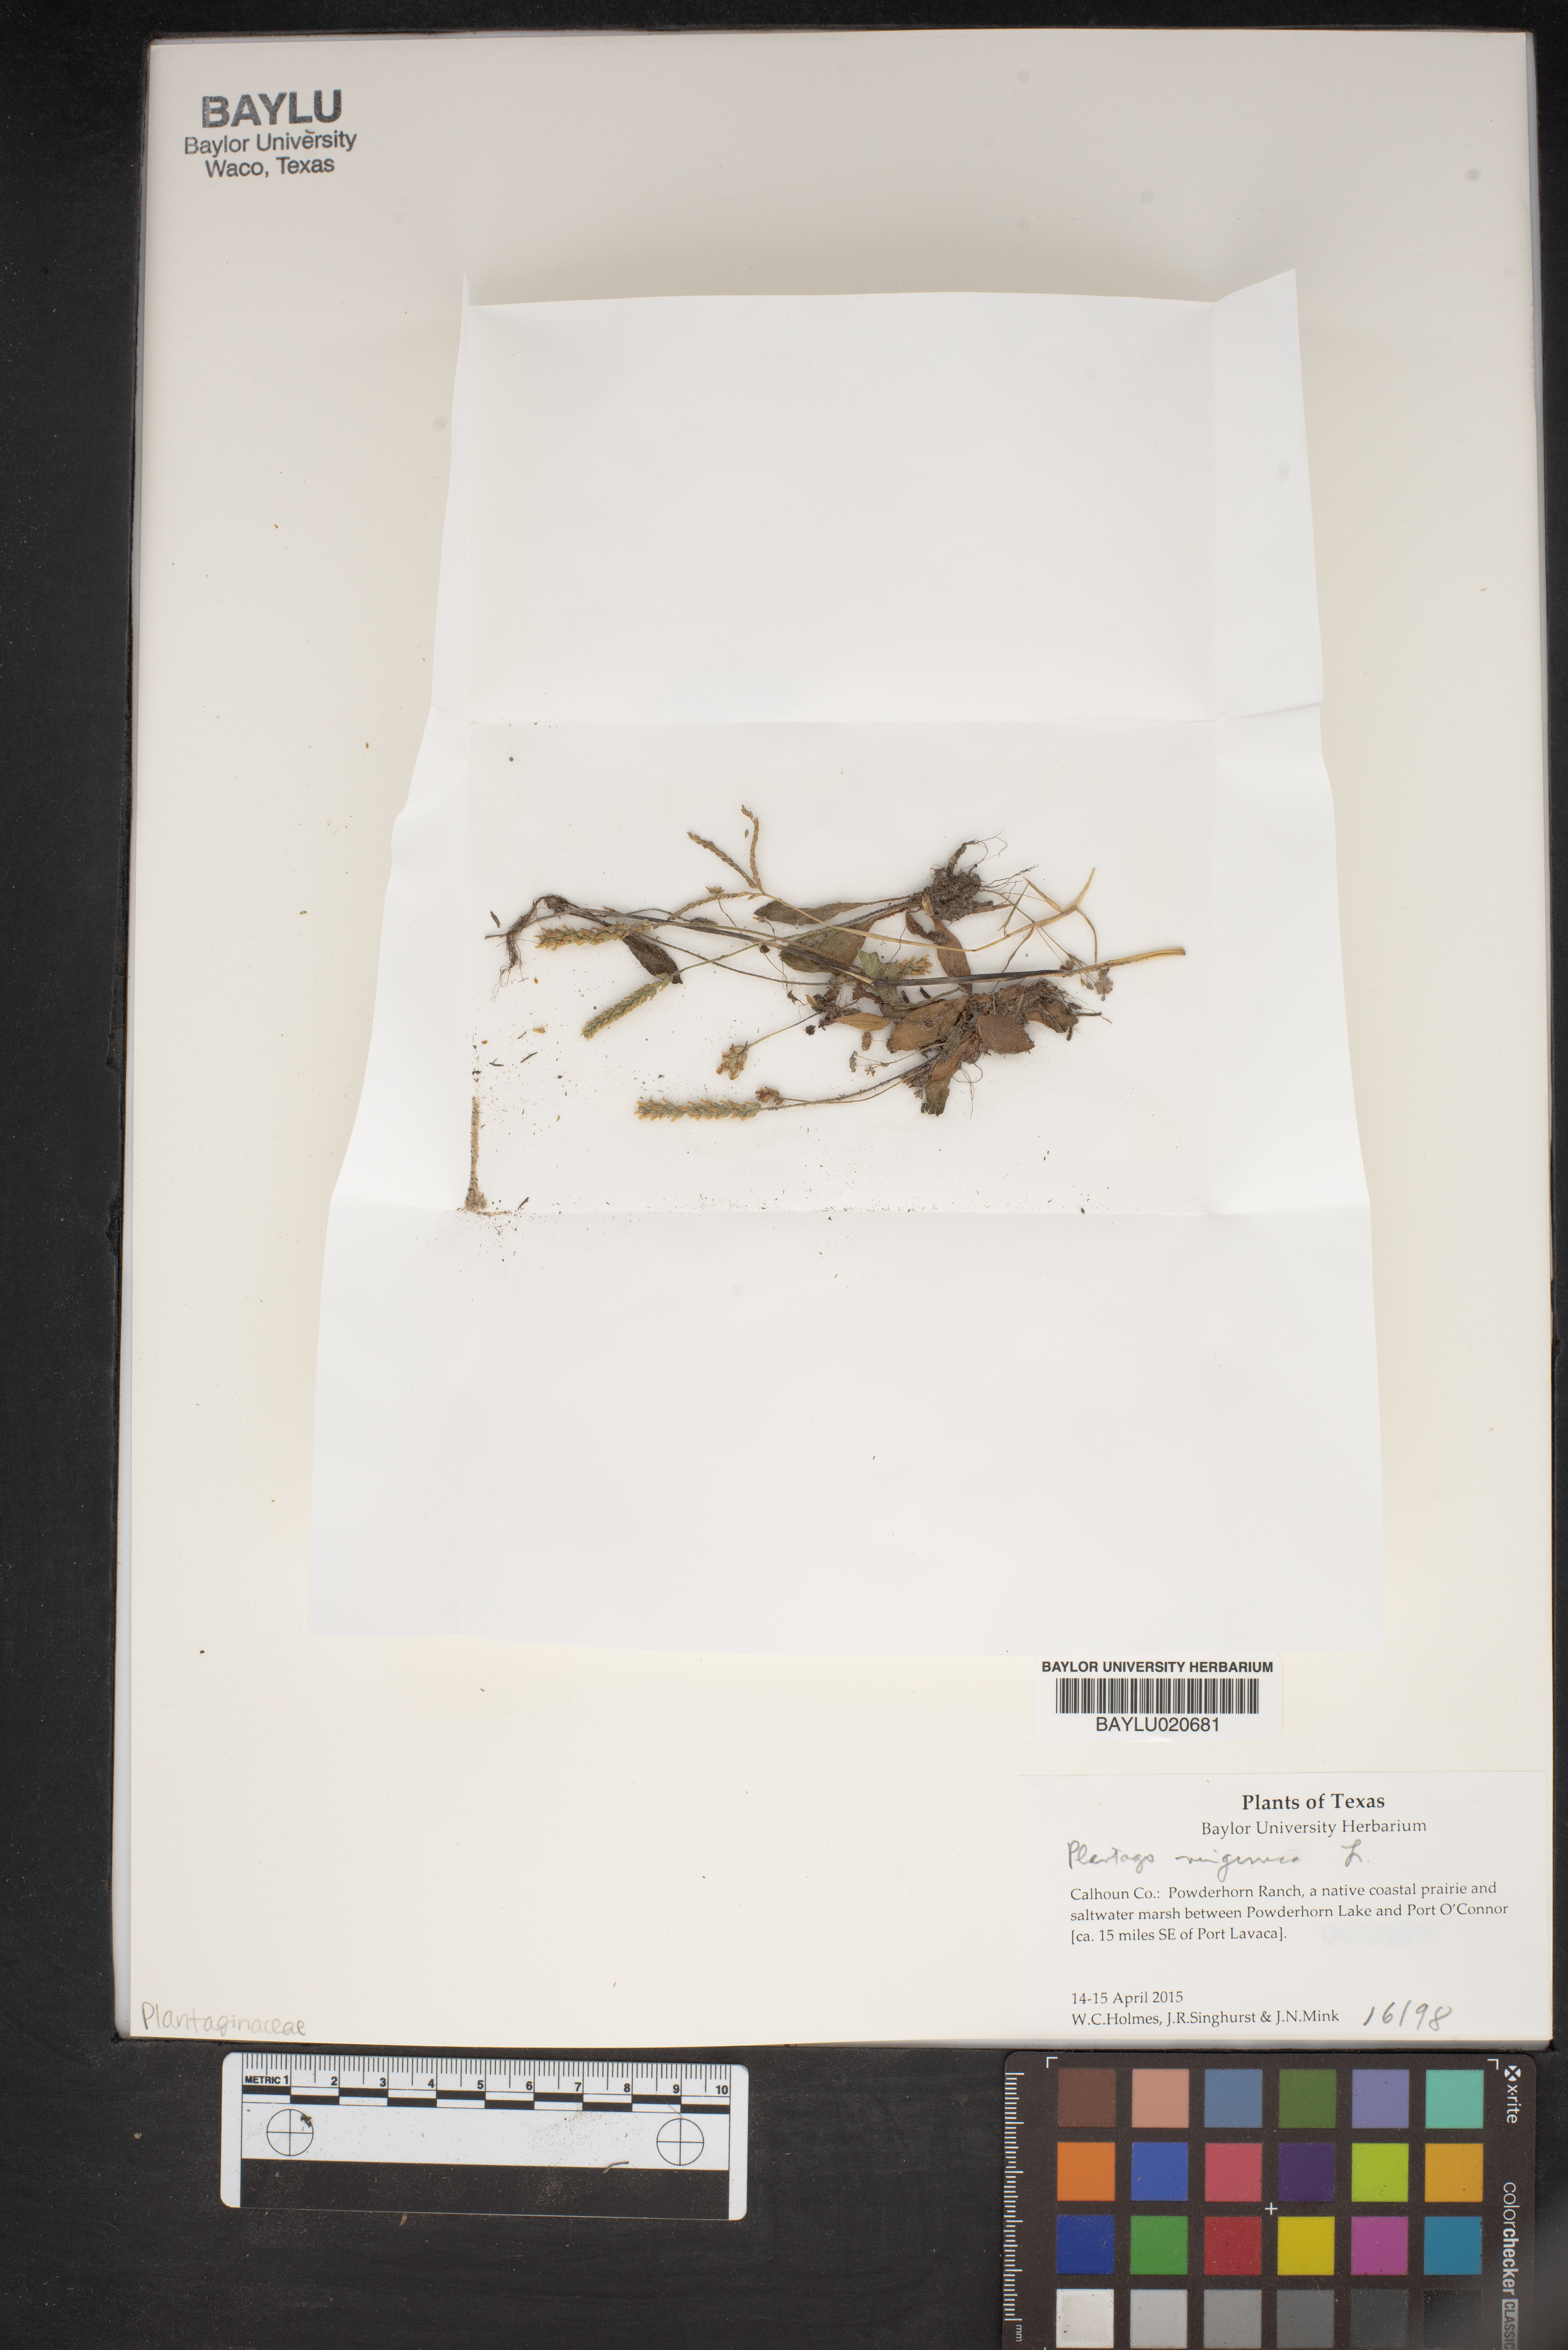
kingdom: Plantae
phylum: Tracheophyta
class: Magnoliopsida
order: Lamiales
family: Plantaginaceae
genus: Plantago
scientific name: Plantago virginica
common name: Hoary plantain
